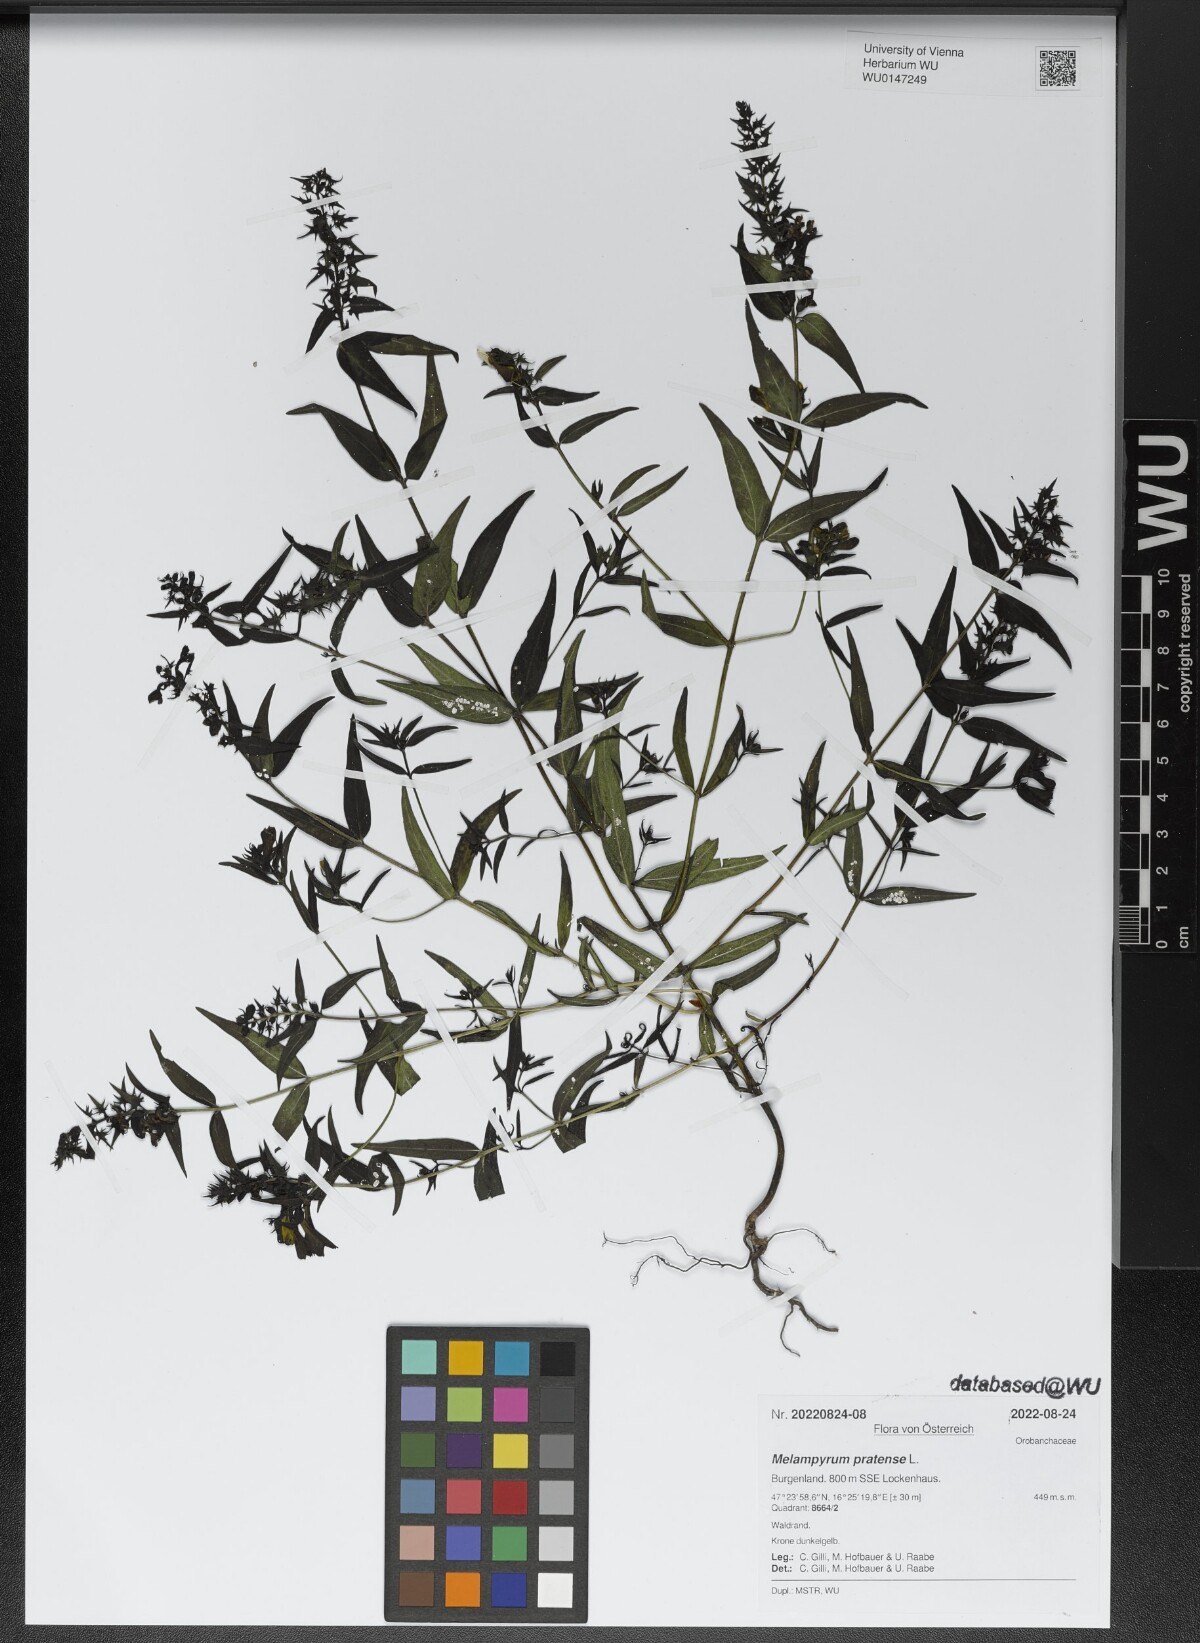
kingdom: Plantae
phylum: Tracheophyta
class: Magnoliopsida
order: Lamiales
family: Orobanchaceae
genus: Melampyrum
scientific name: Melampyrum pratense
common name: Common cow-wheat
